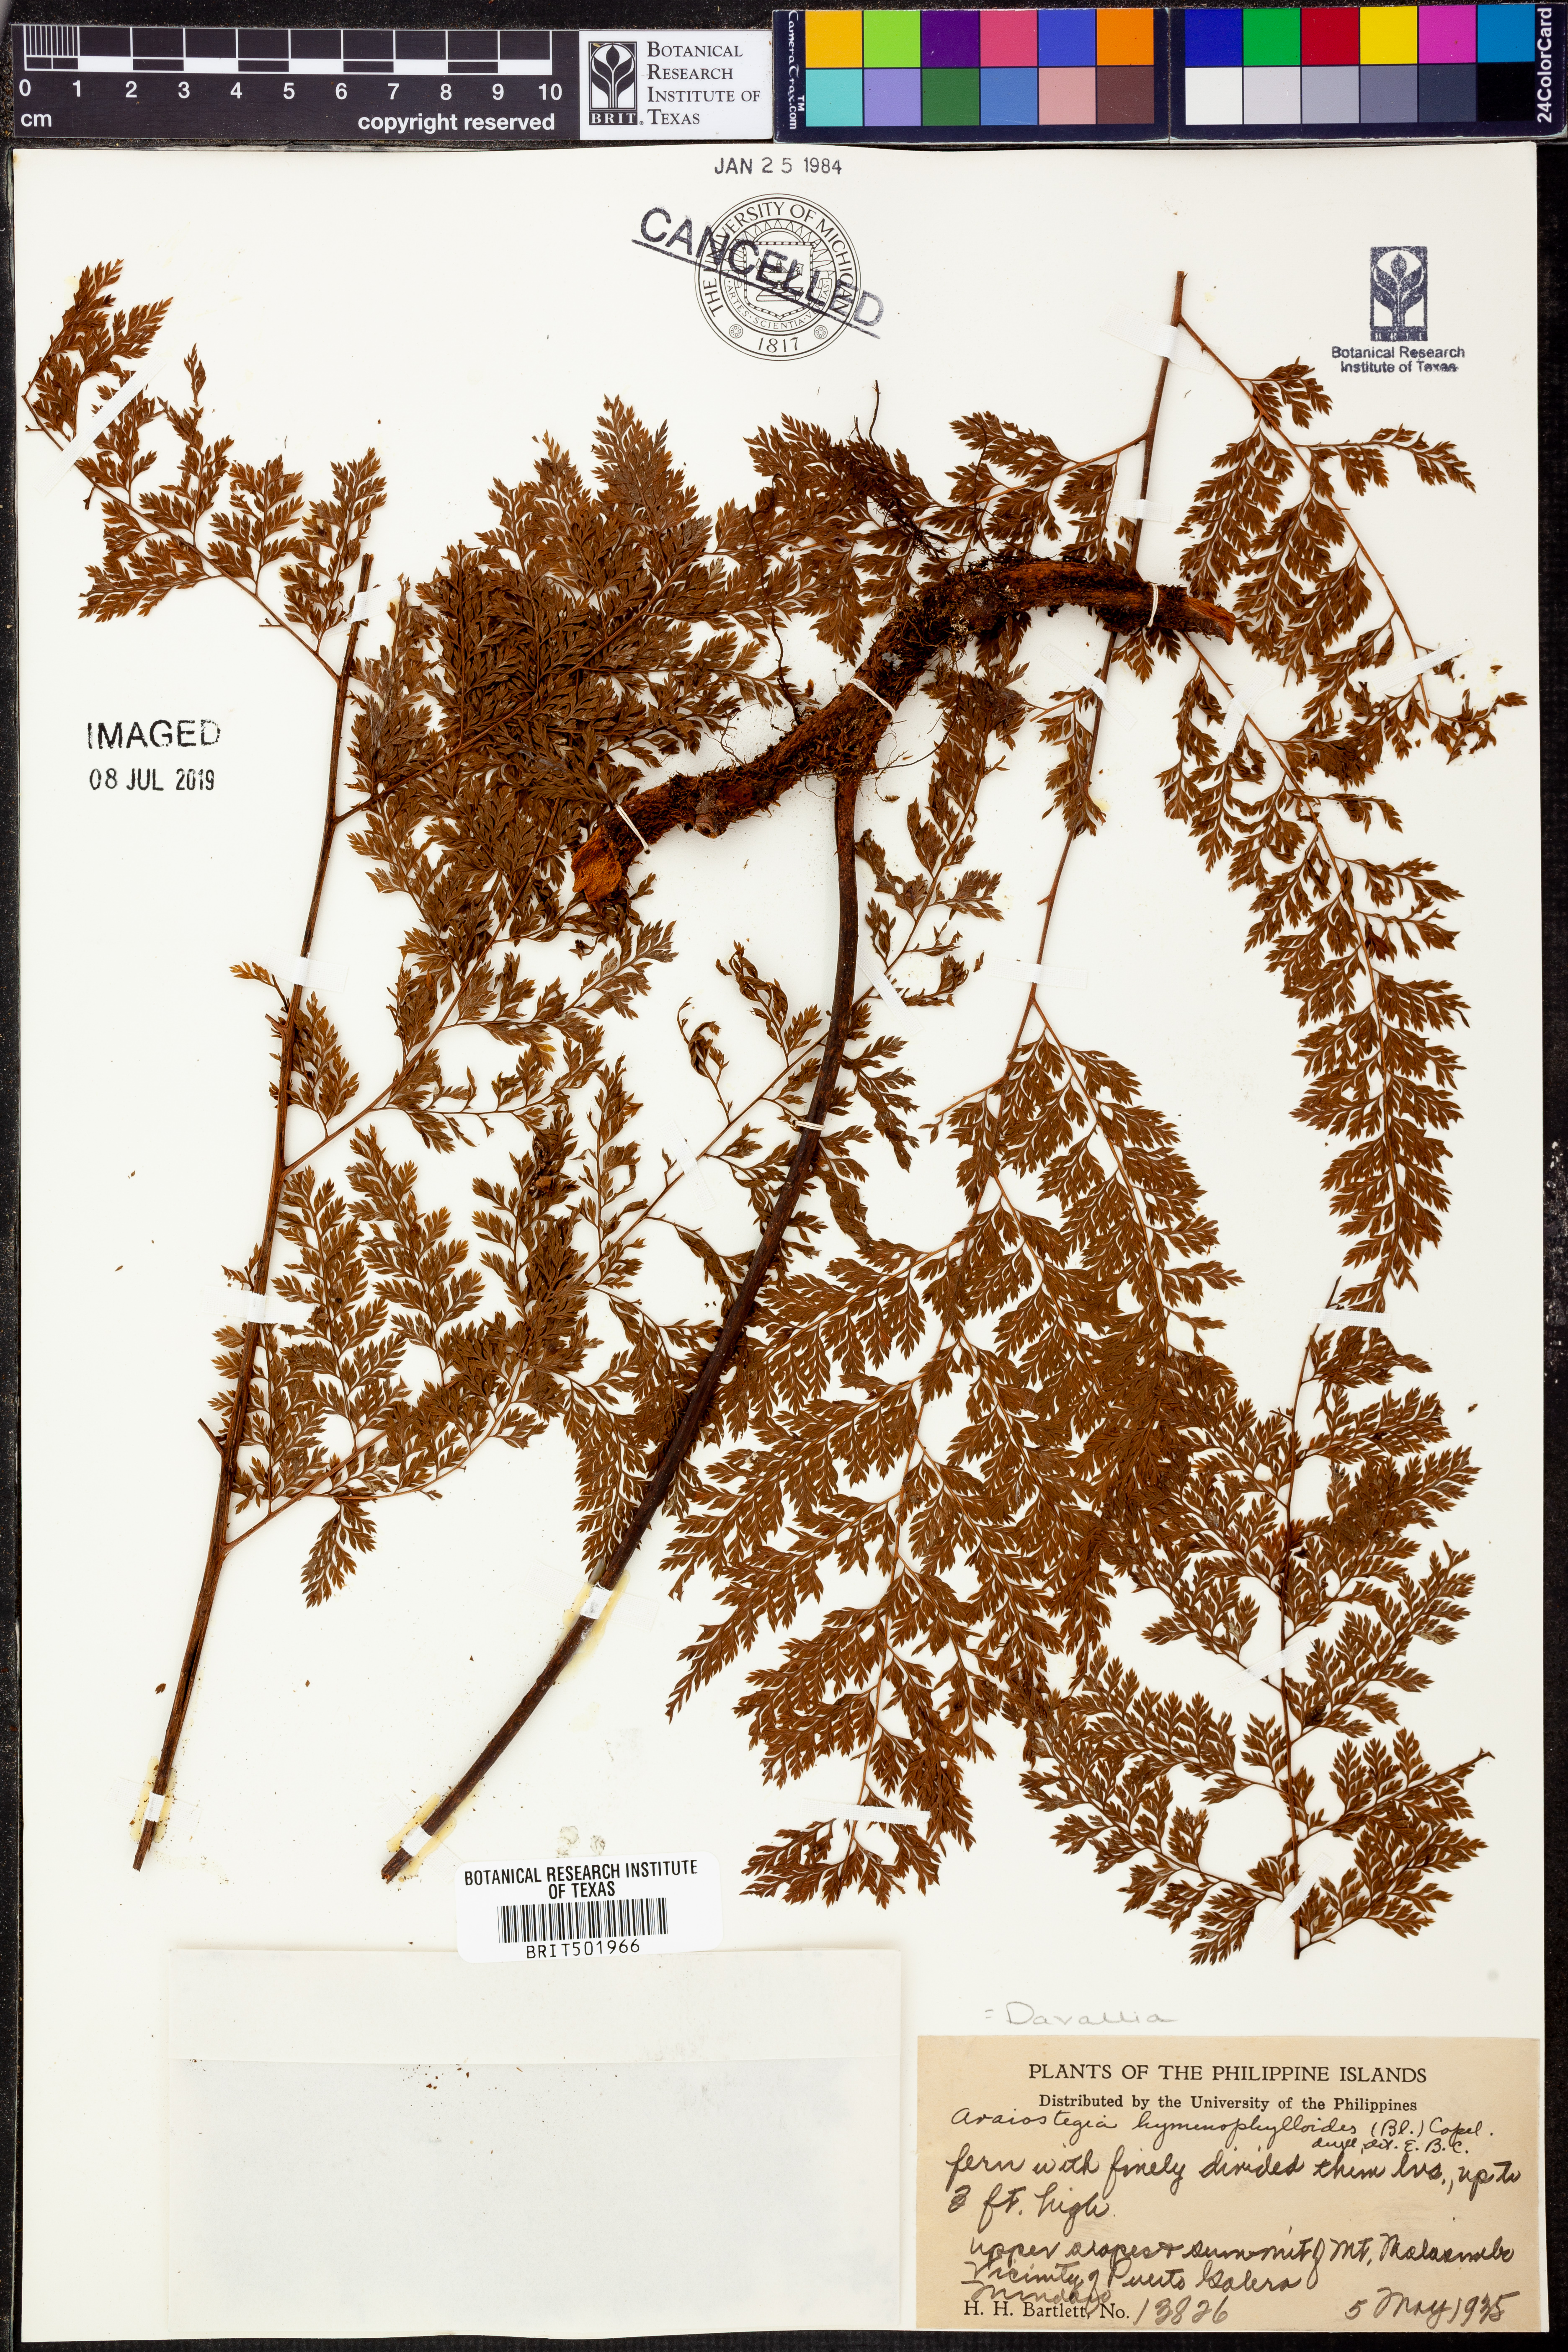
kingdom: Plantae
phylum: Tracheophyta
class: Polypodiopsida
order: Polypodiales
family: Davalliaceae
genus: Davallia
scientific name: Davallia
